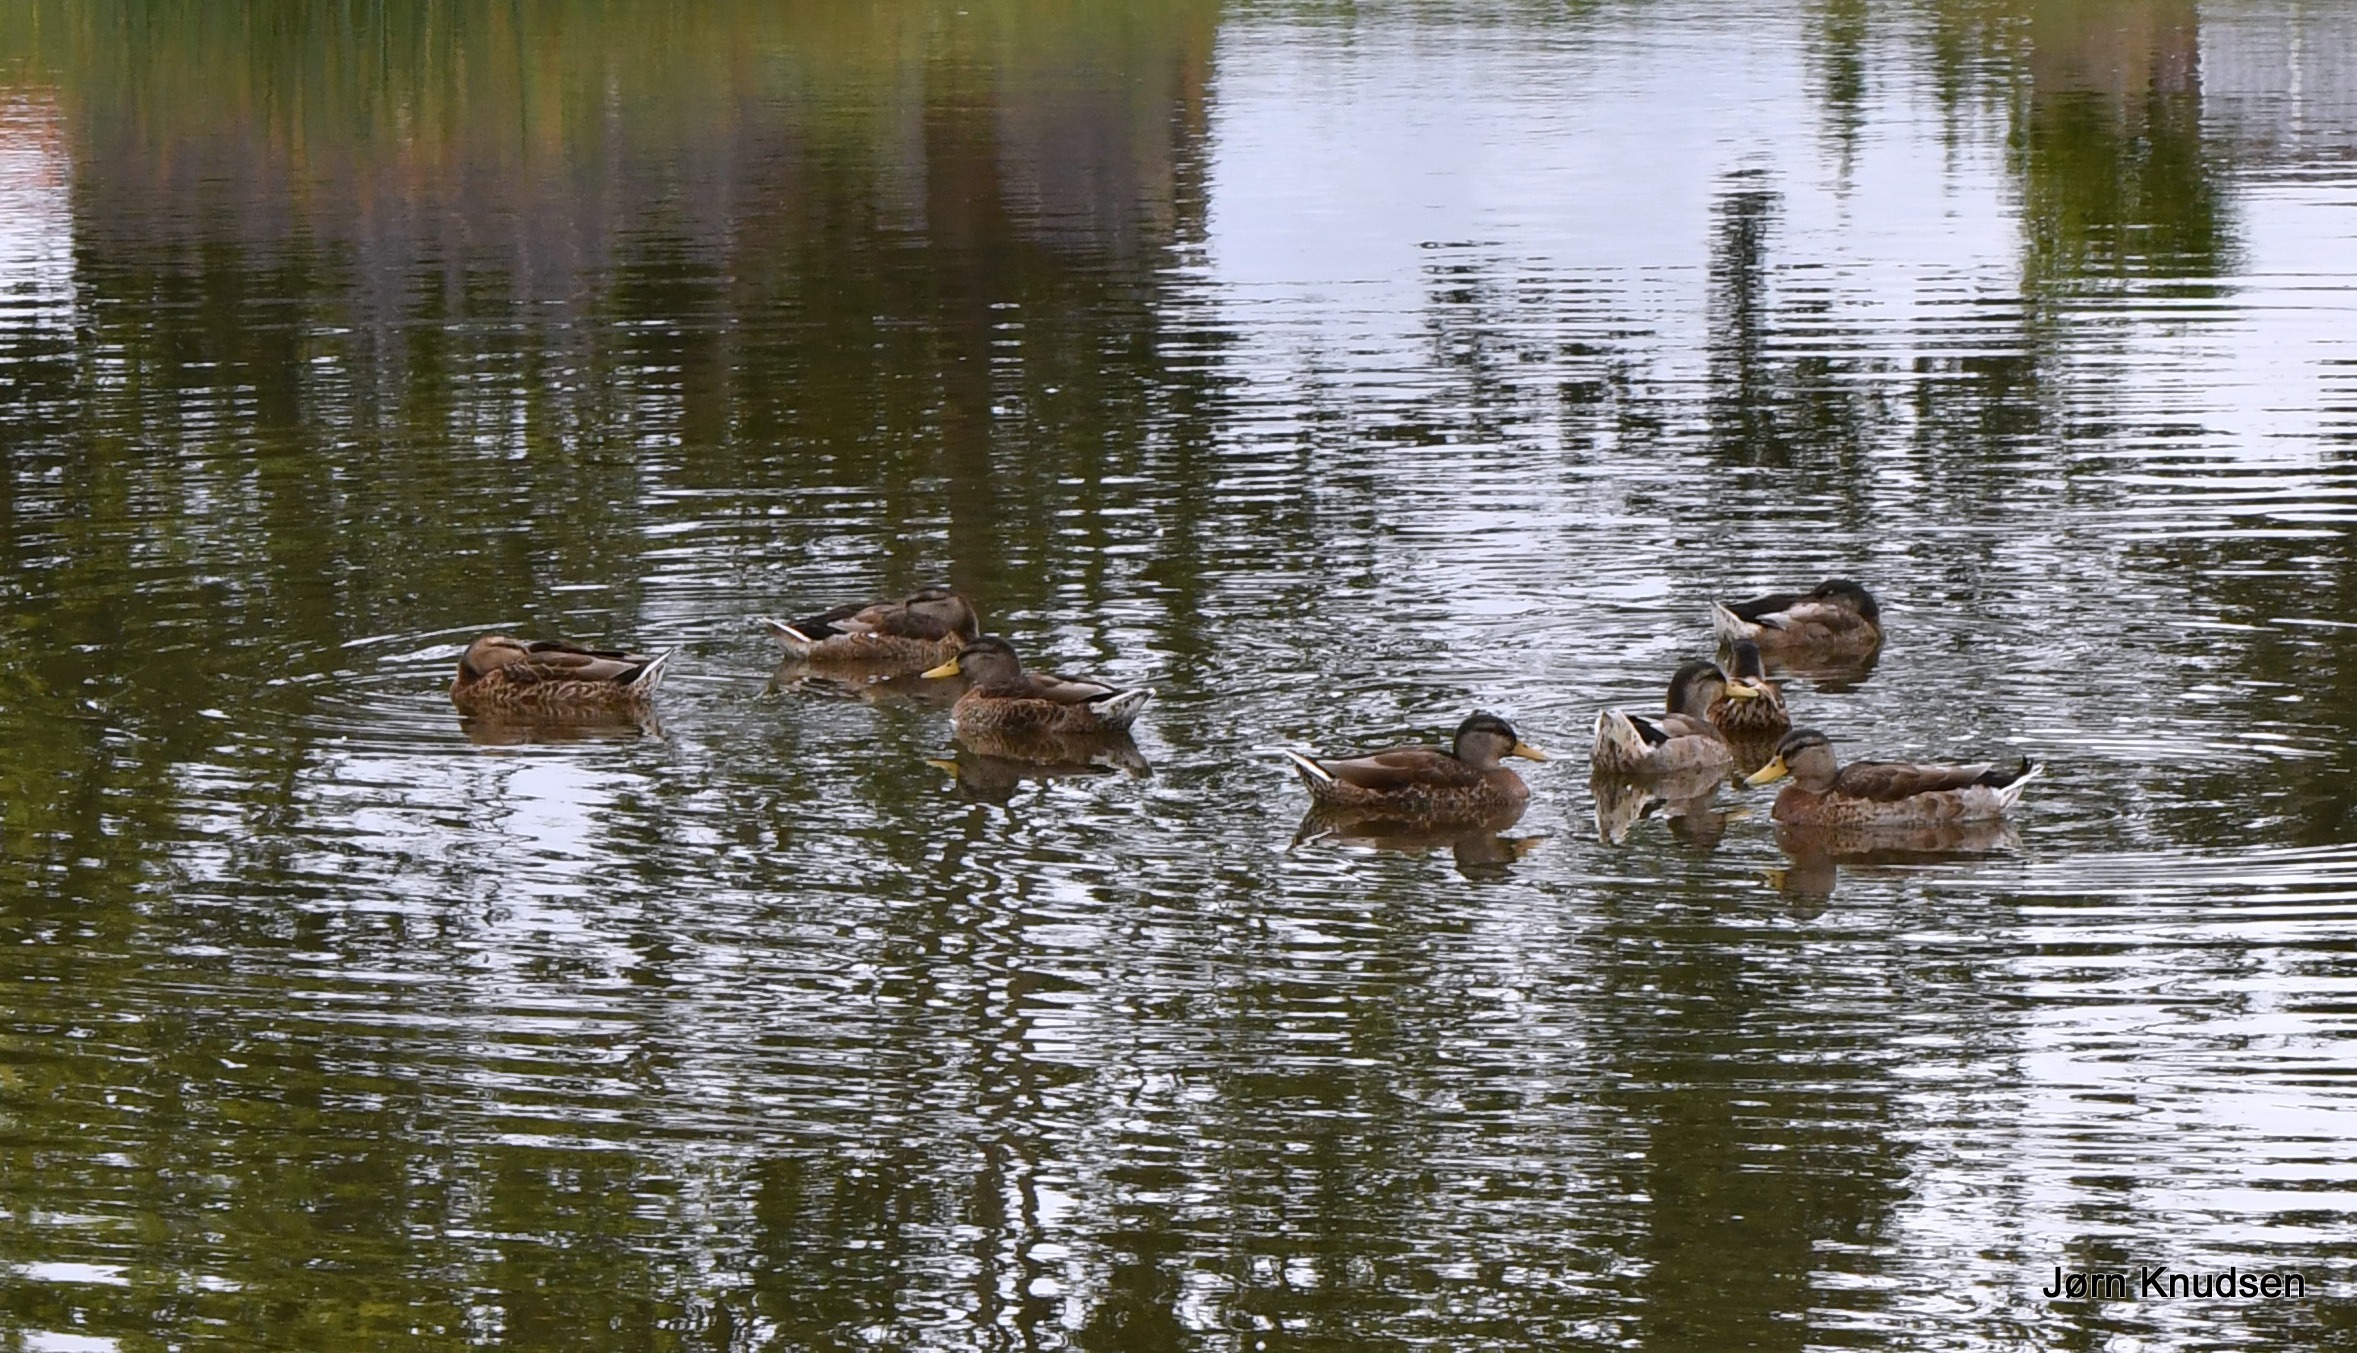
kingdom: Animalia
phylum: Chordata
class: Aves
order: Anseriformes
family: Anatidae
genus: Anas
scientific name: Anas platyrhynchos
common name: Gråand
